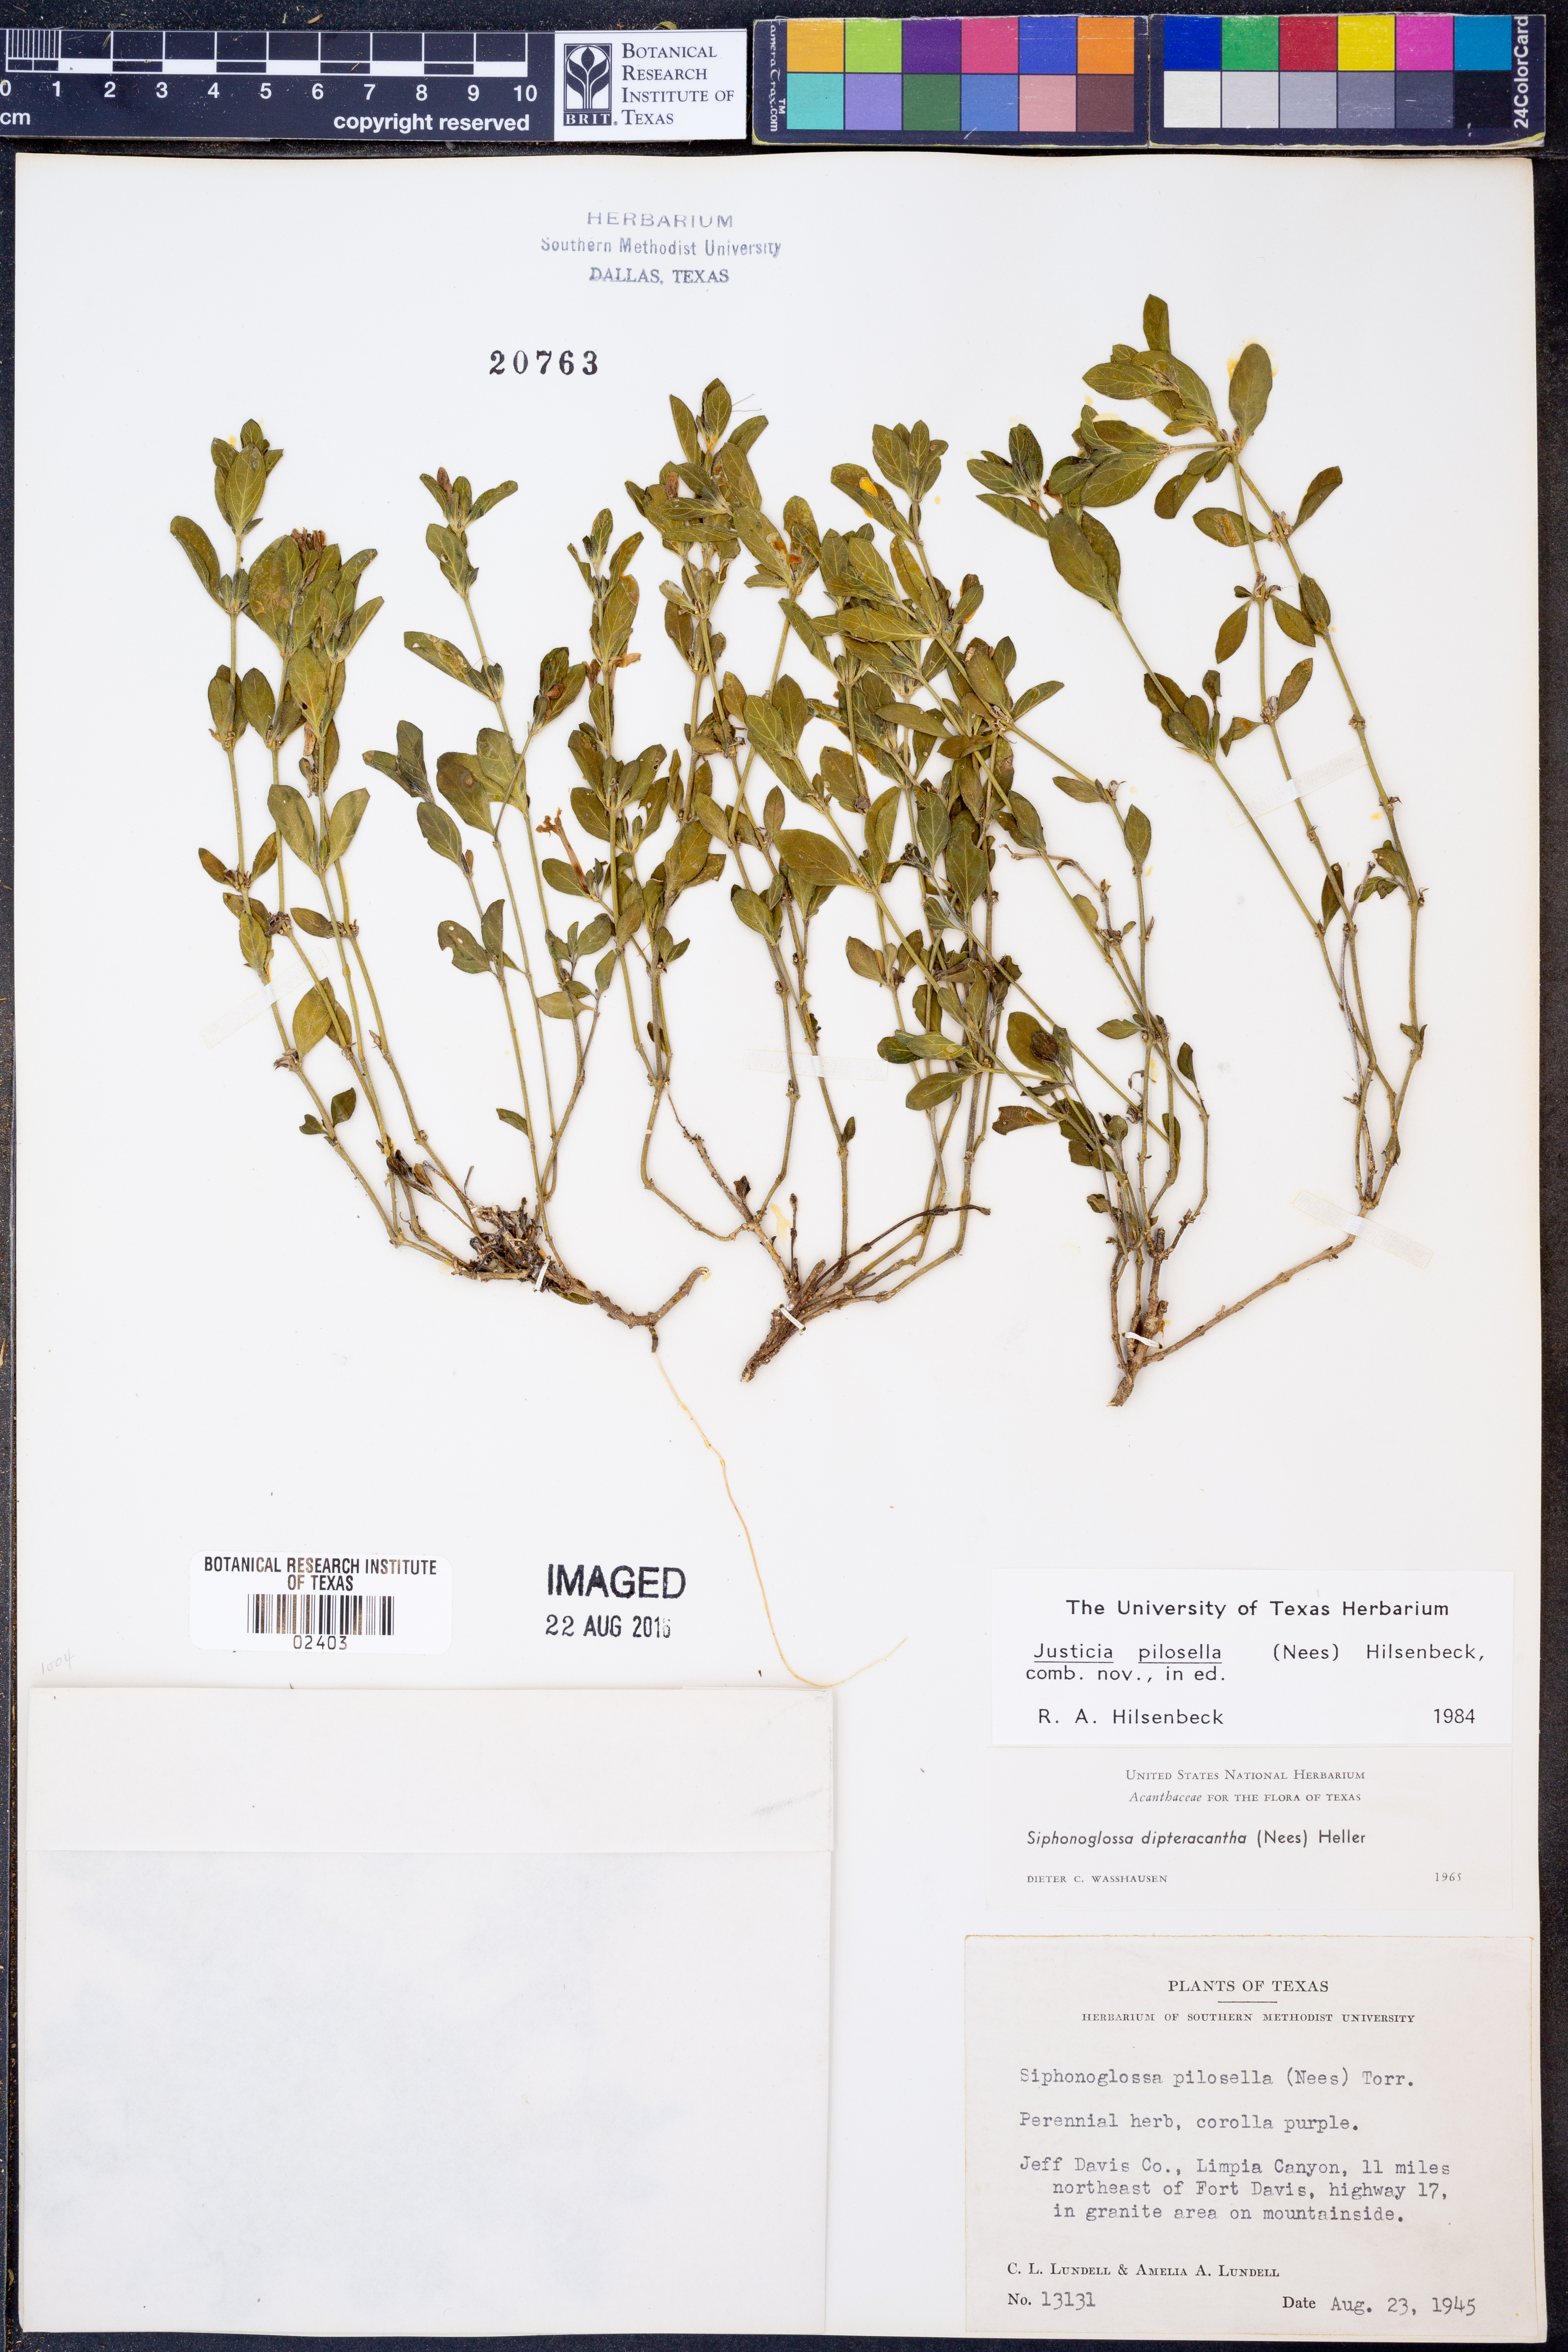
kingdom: Plantae
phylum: Tracheophyta
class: Magnoliopsida
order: Lamiales
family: Acanthaceae
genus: Justicia
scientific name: Justicia pilosella
